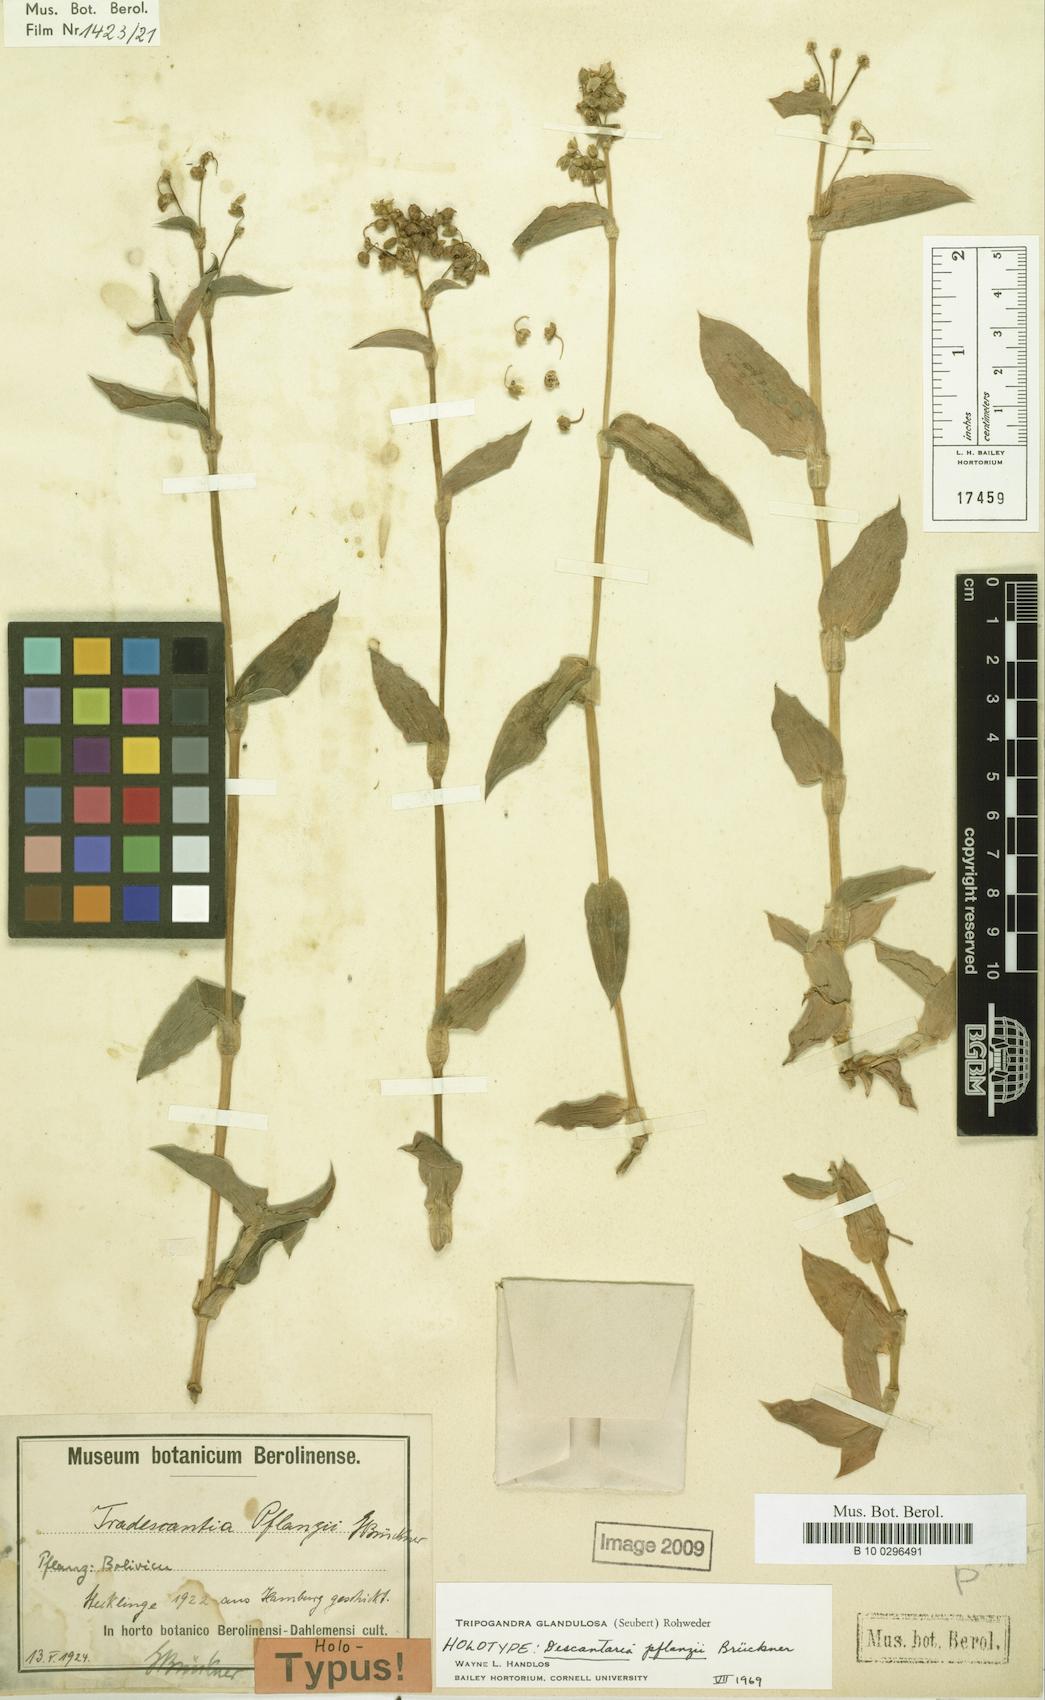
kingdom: Plantae
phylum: Tracheophyta
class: Liliopsida
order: Commelinales
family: Commelinaceae
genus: Callisia
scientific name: Callisia glandulosa
